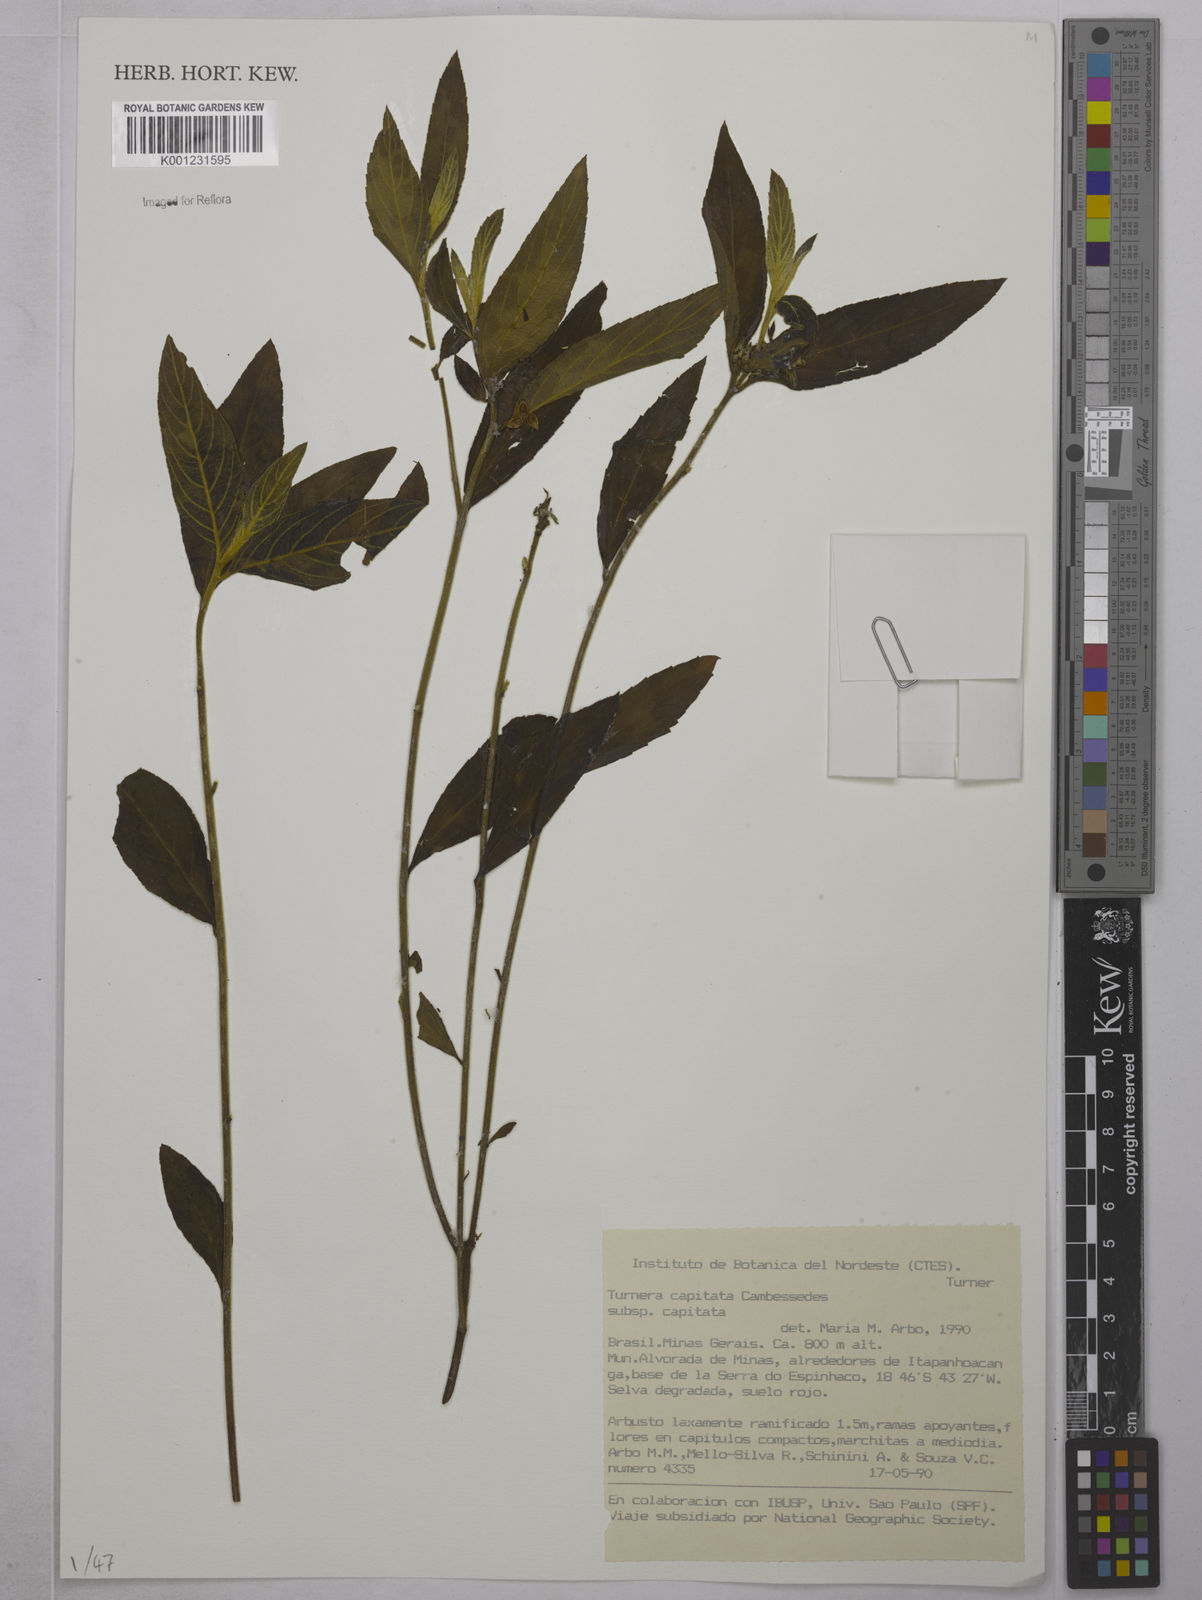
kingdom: Plantae
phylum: Tracheophyta
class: Magnoliopsida
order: Malpighiales
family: Turneraceae
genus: Oxossia
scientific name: Oxossia capitata
